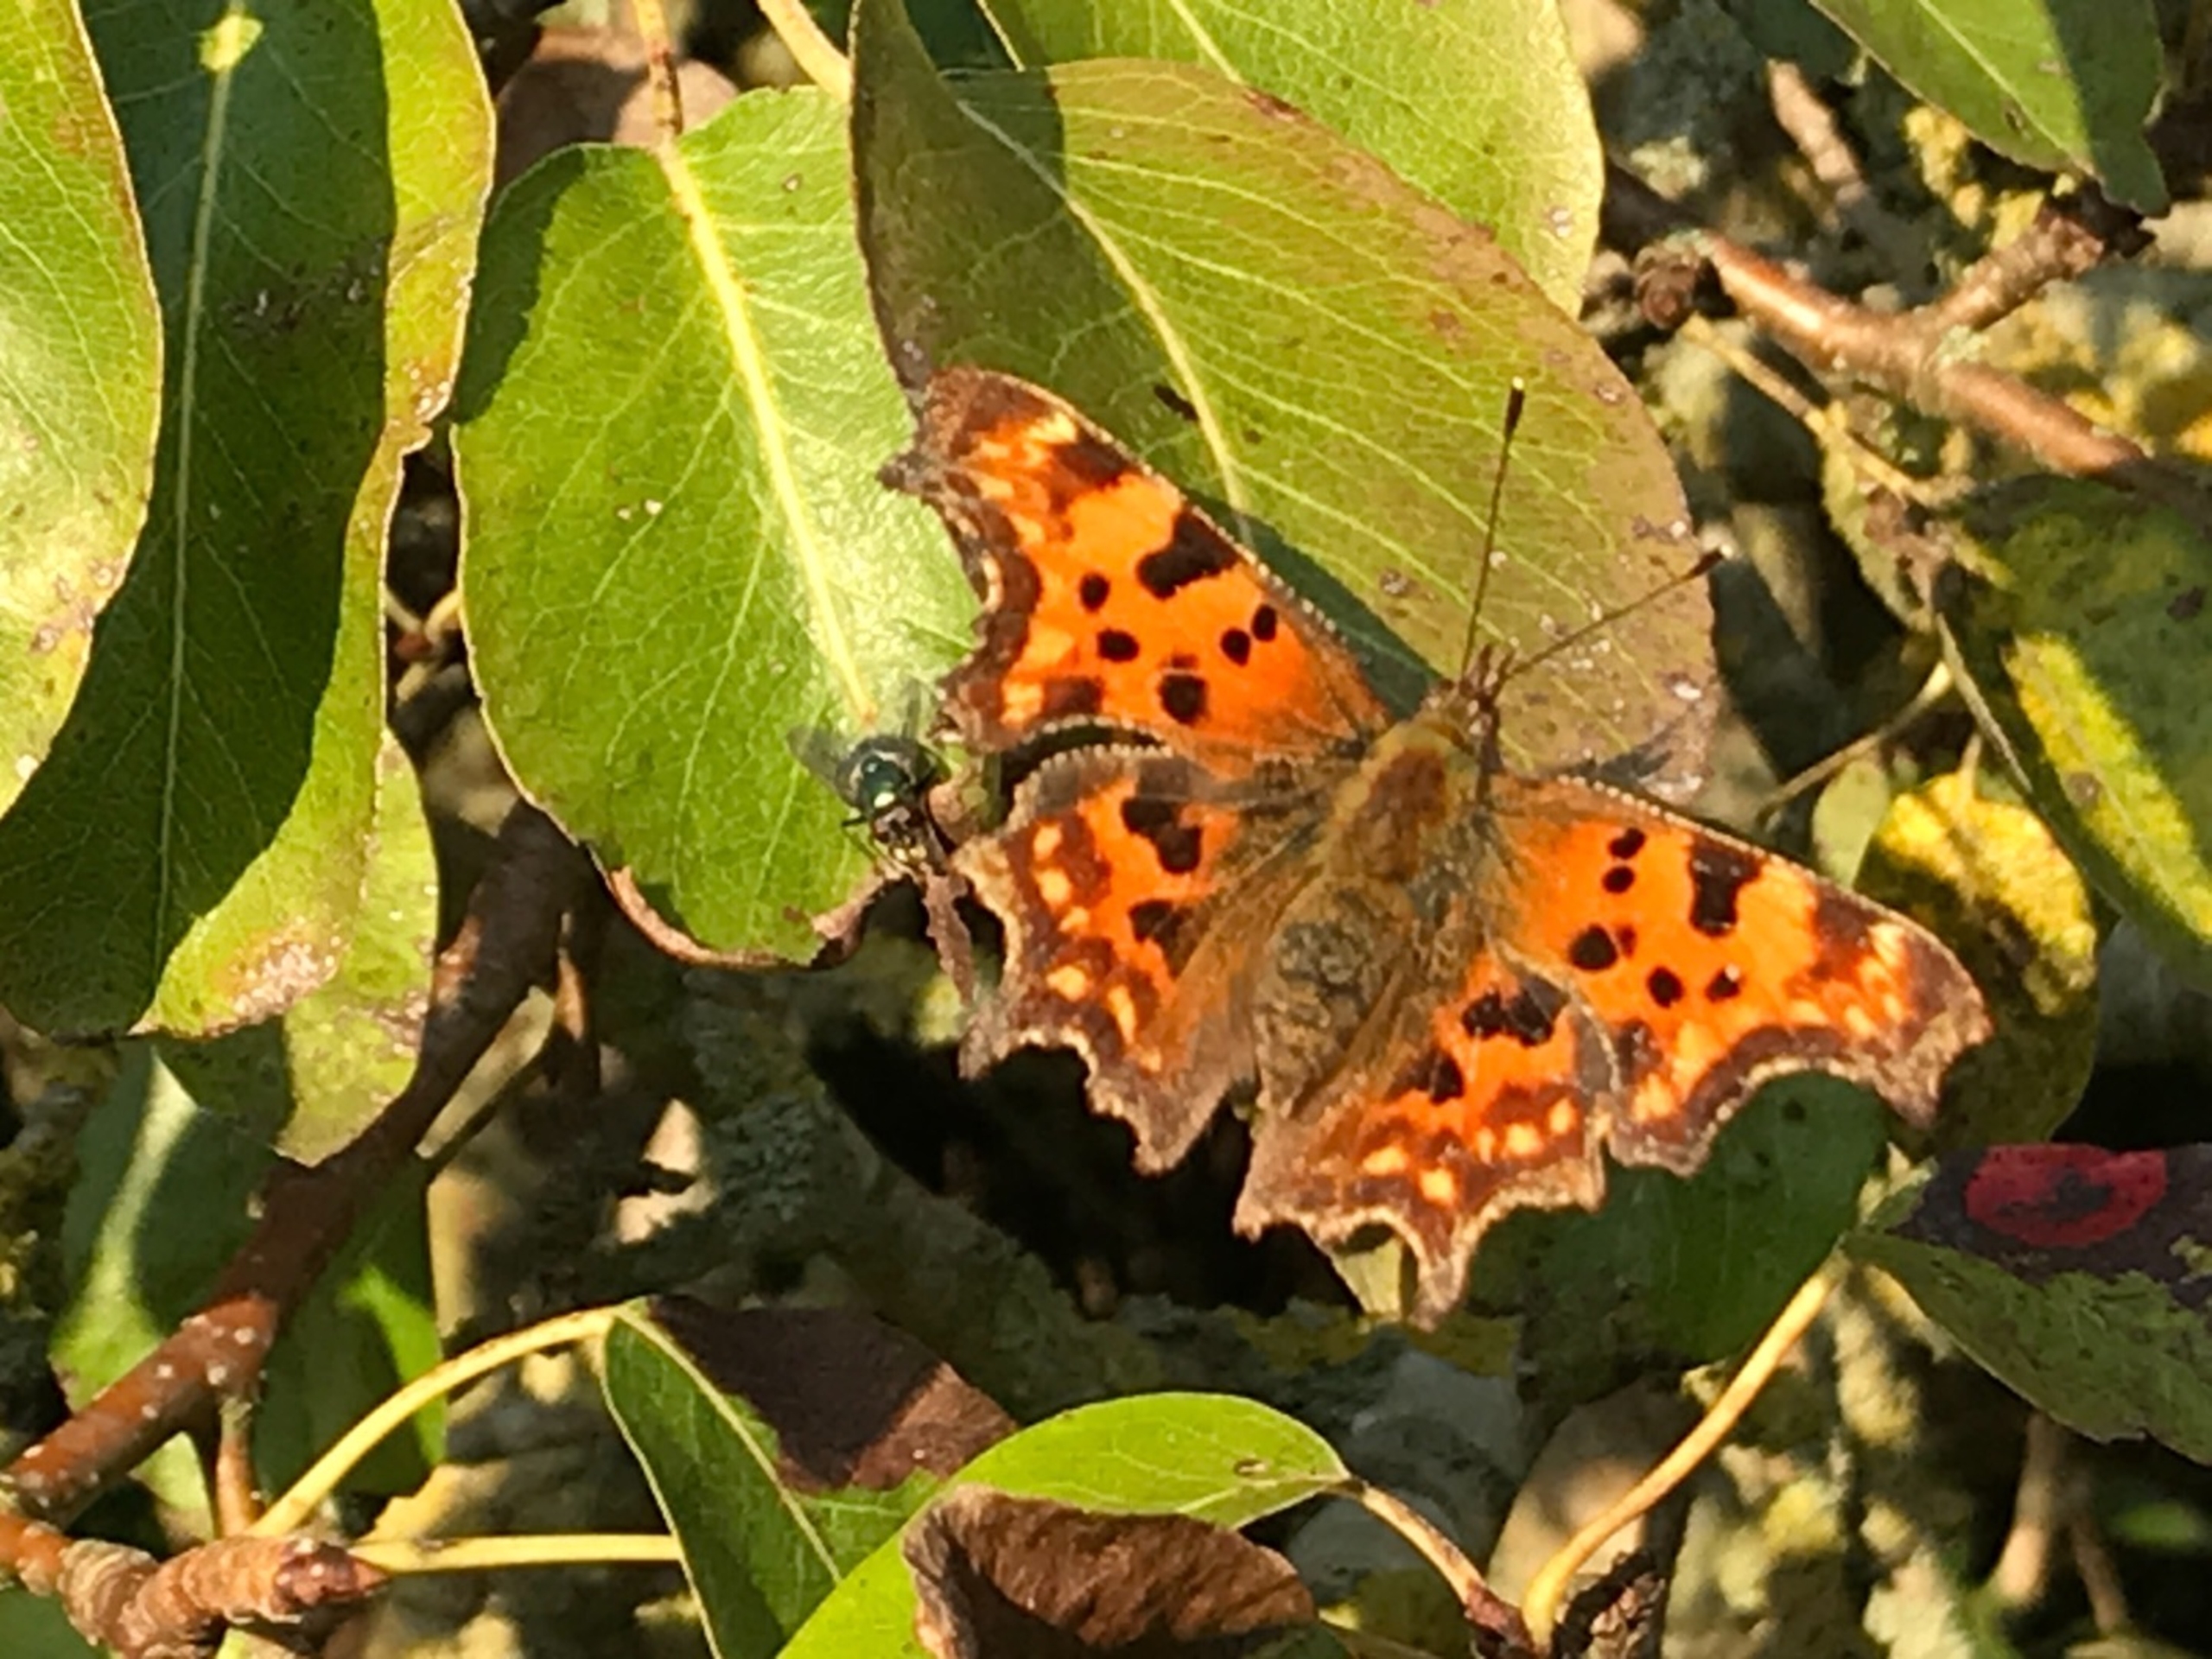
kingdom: Animalia
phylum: Arthropoda
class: Insecta
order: Lepidoptera
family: Nymphalidae
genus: Polygonia
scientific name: Polygonia c-album
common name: Det hvide C
